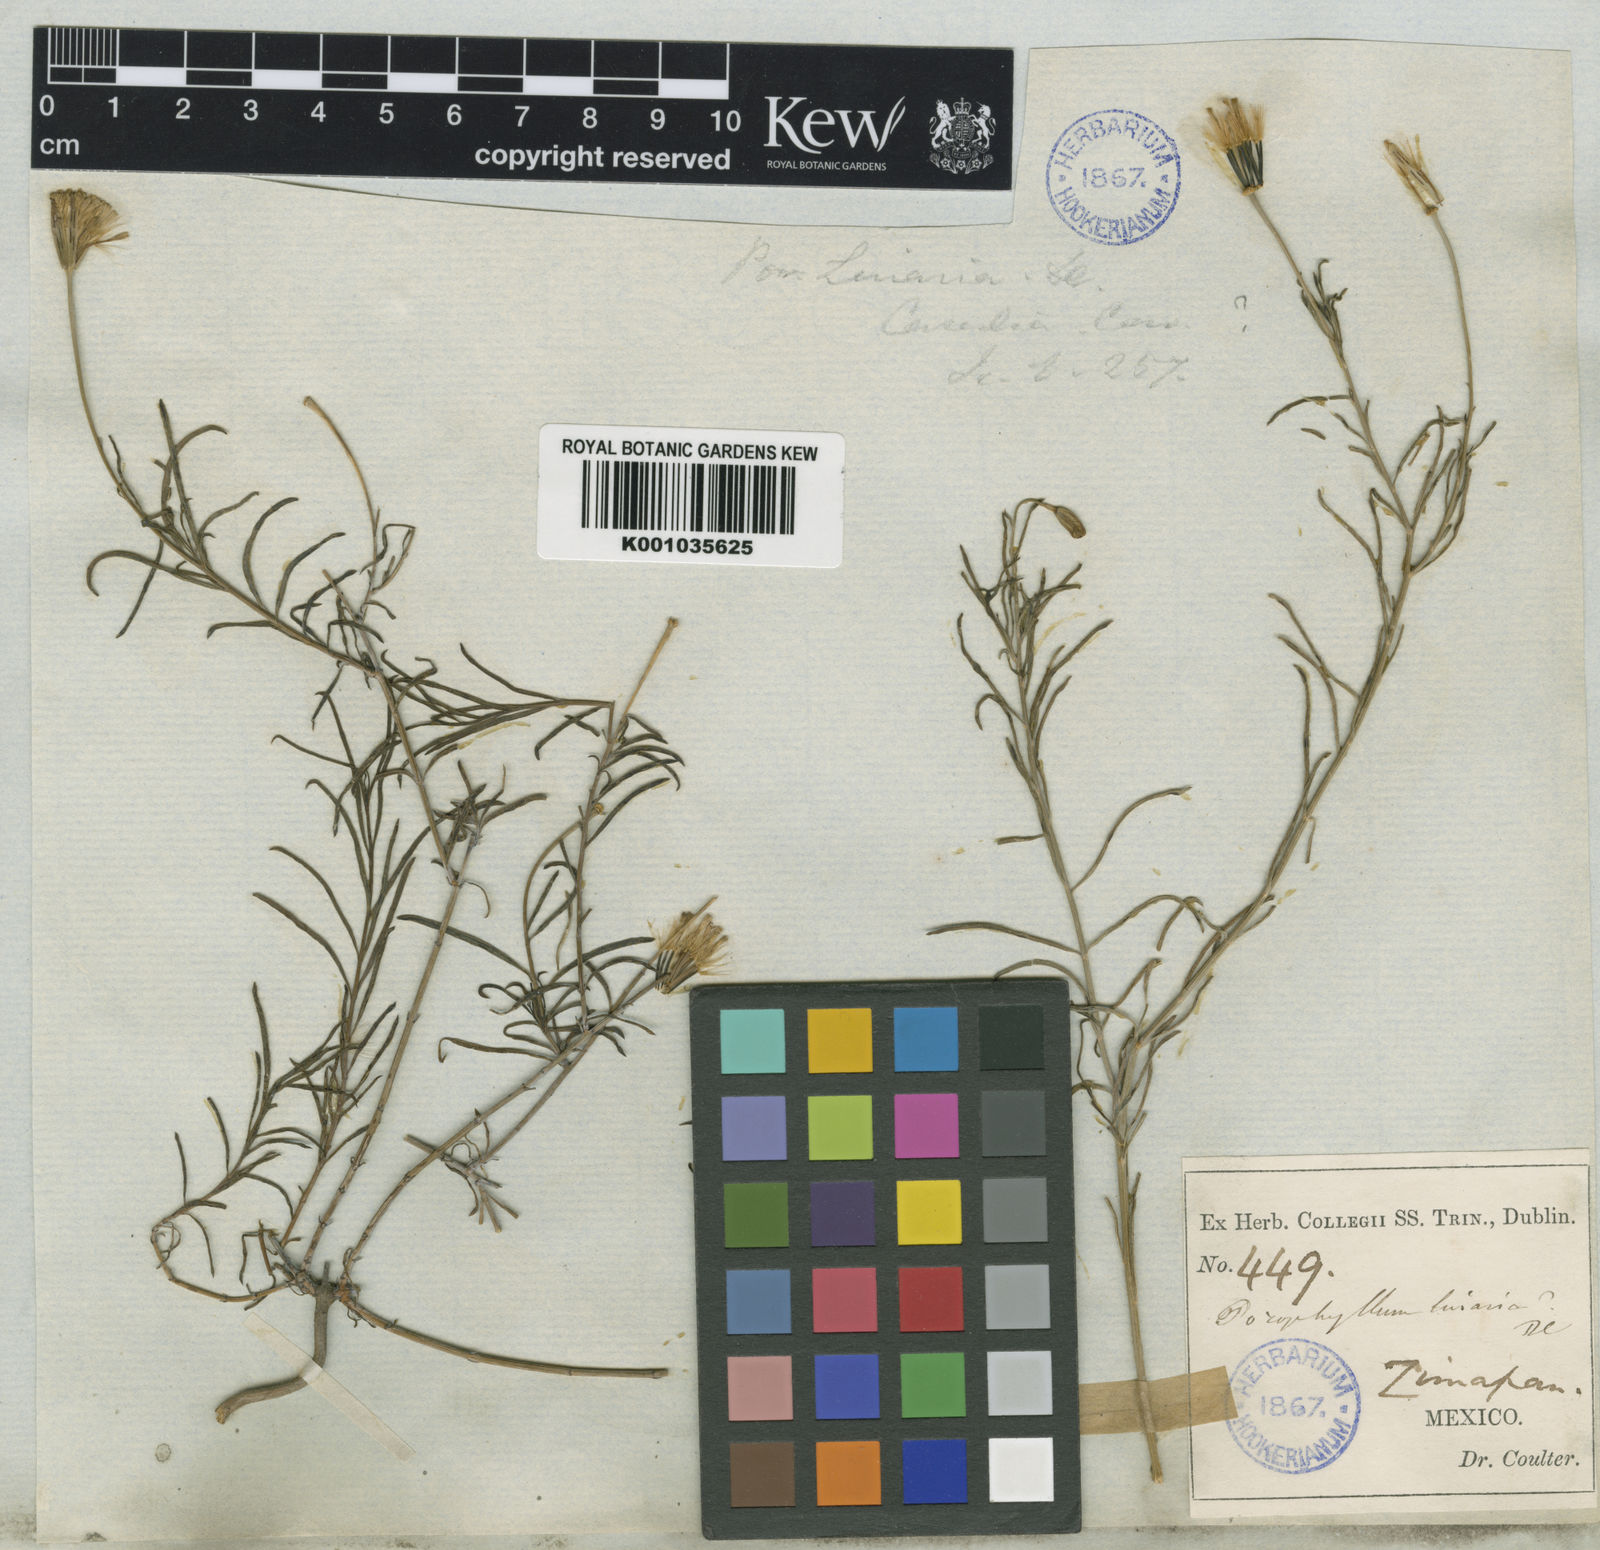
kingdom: Plantae
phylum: Tracheophyta
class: Magnoliopsida
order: Asterales
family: Asteraceae
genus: Porophyllum
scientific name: Porophyllum linaria
